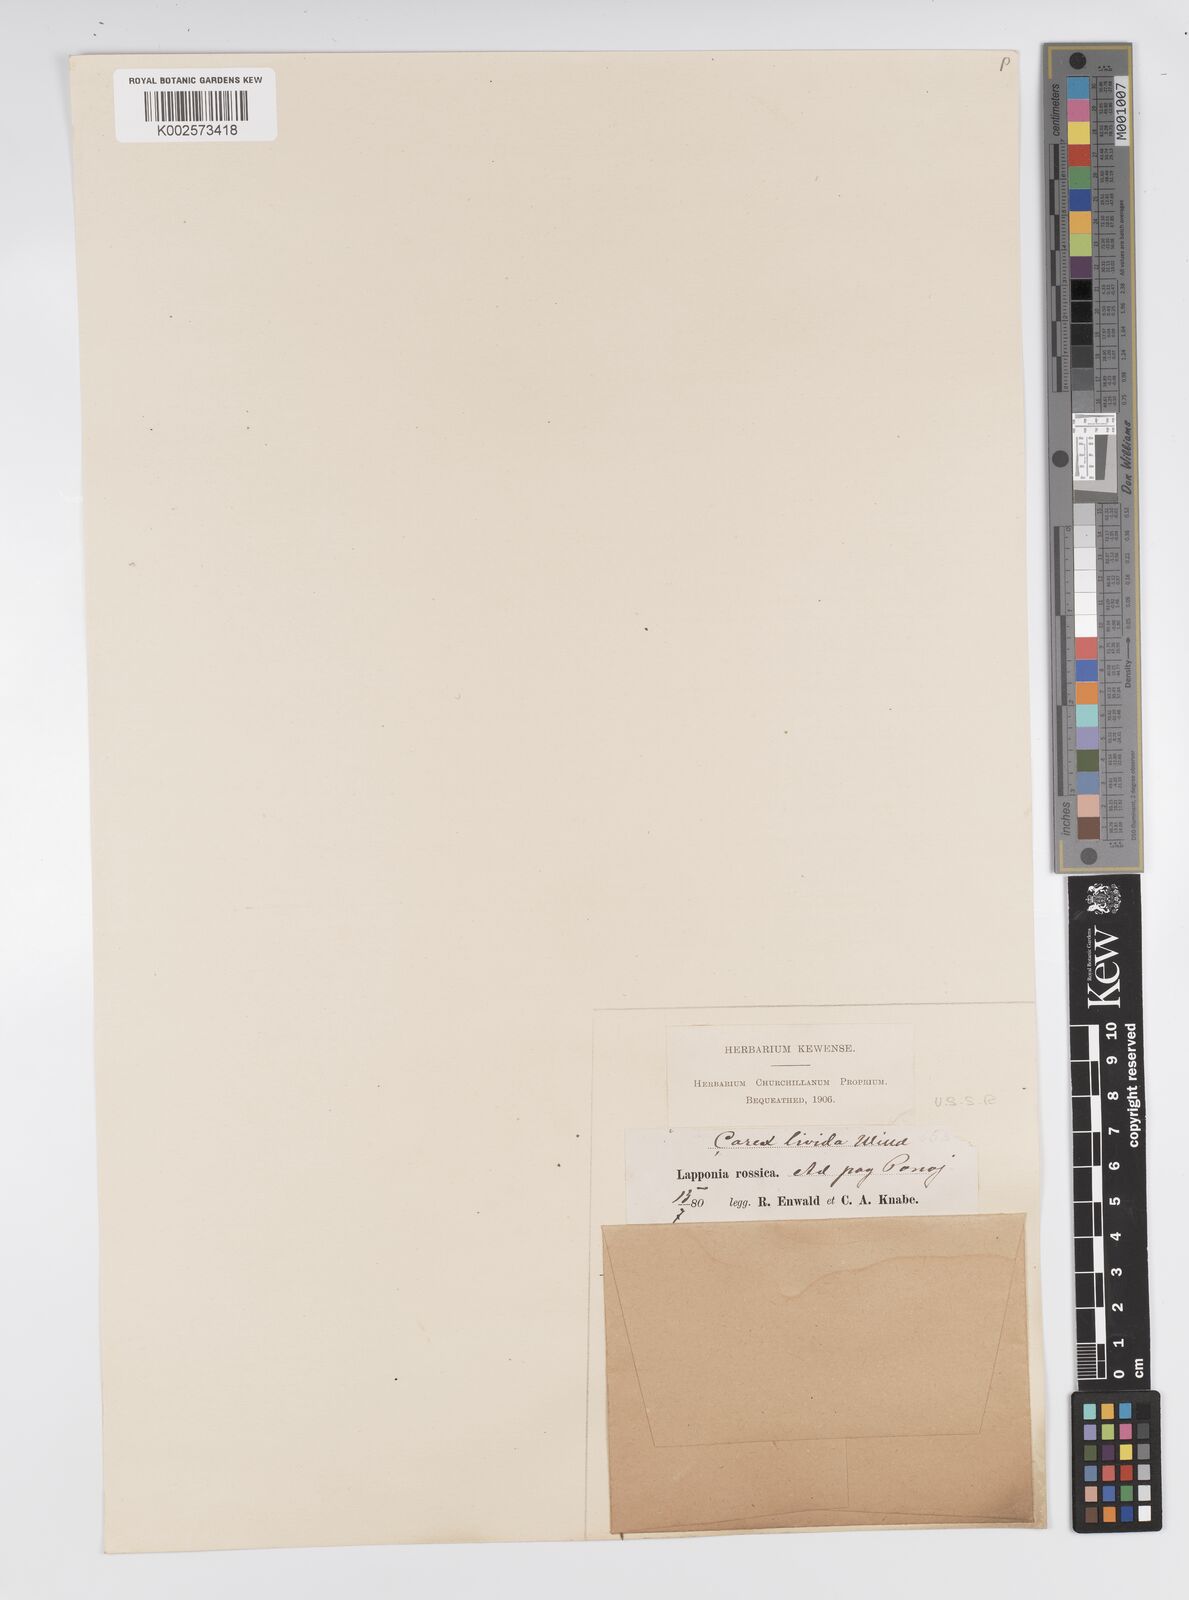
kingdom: Plantae
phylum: Tracheophyta
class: Liliopsida
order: Poales
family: Cyperaceae
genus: Carex
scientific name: Carex livida
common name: Livid sedge
